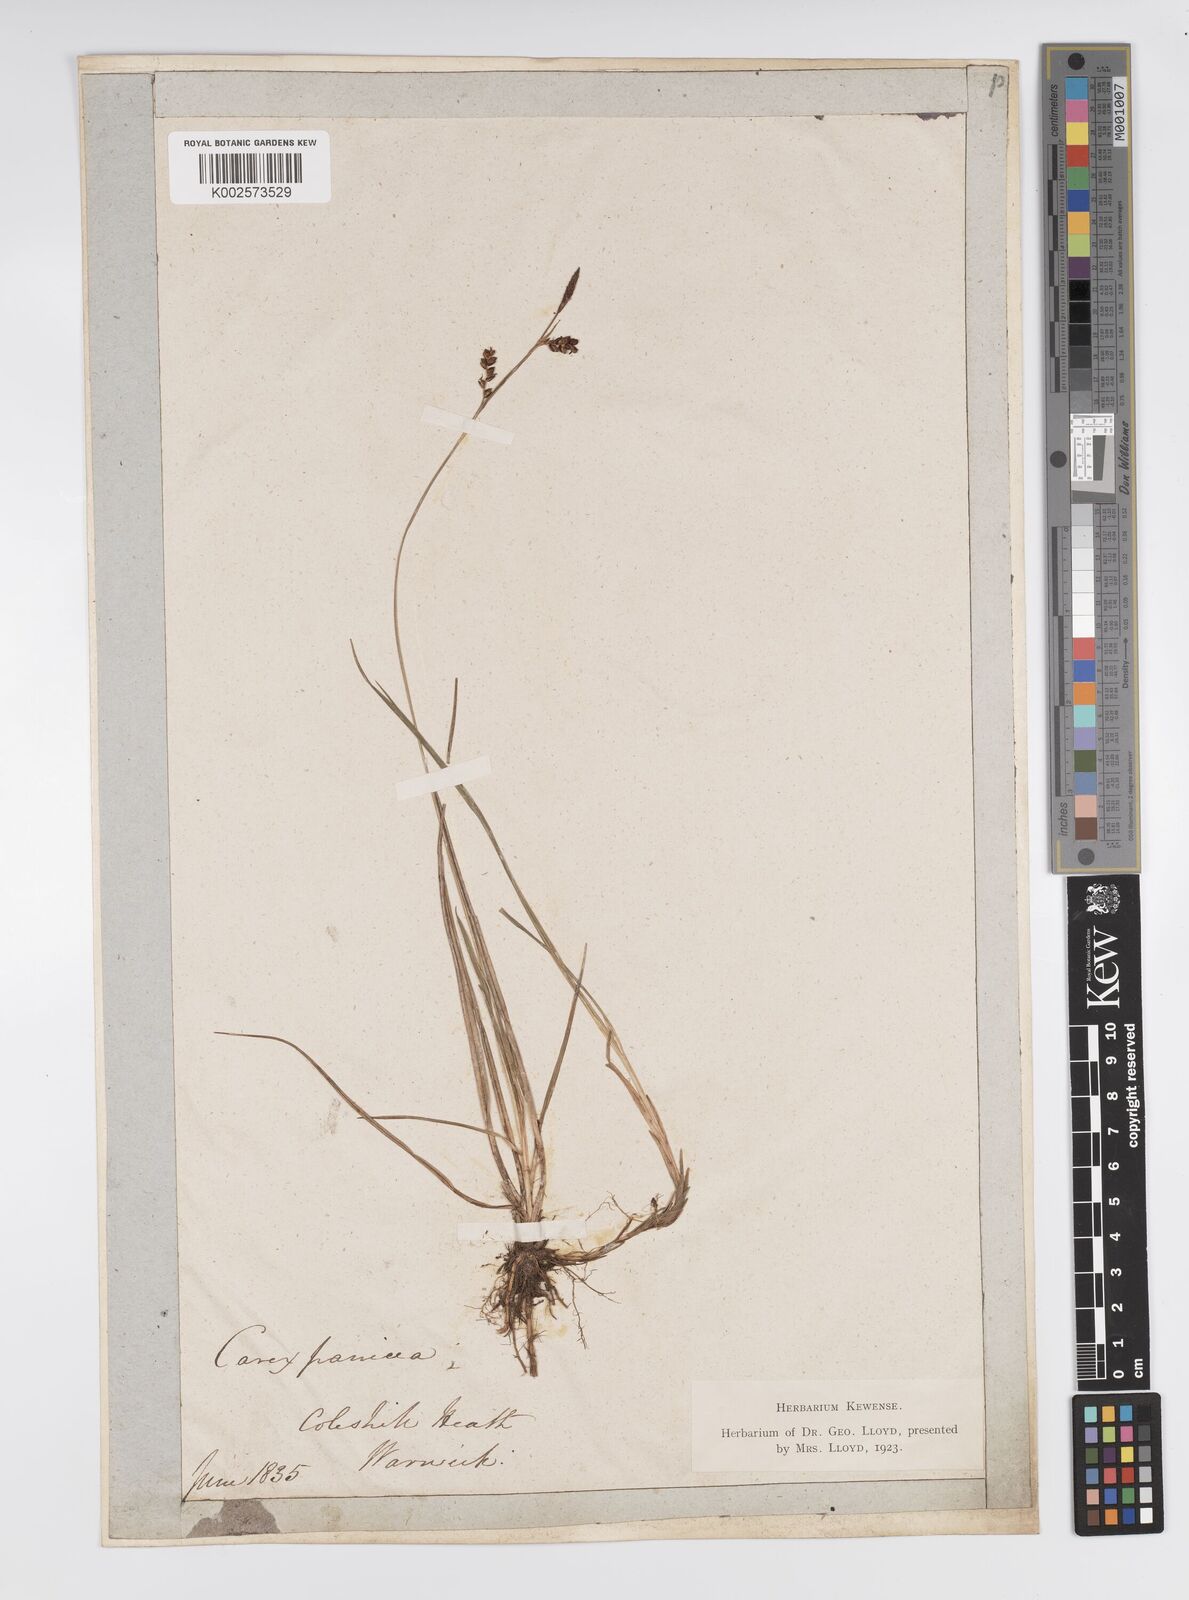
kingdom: Plantae
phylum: Tracheophyta
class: Liliopsida
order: Poales
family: Cyperaceae
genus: Carex
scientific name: Carex panicea
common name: Carnation sedge
